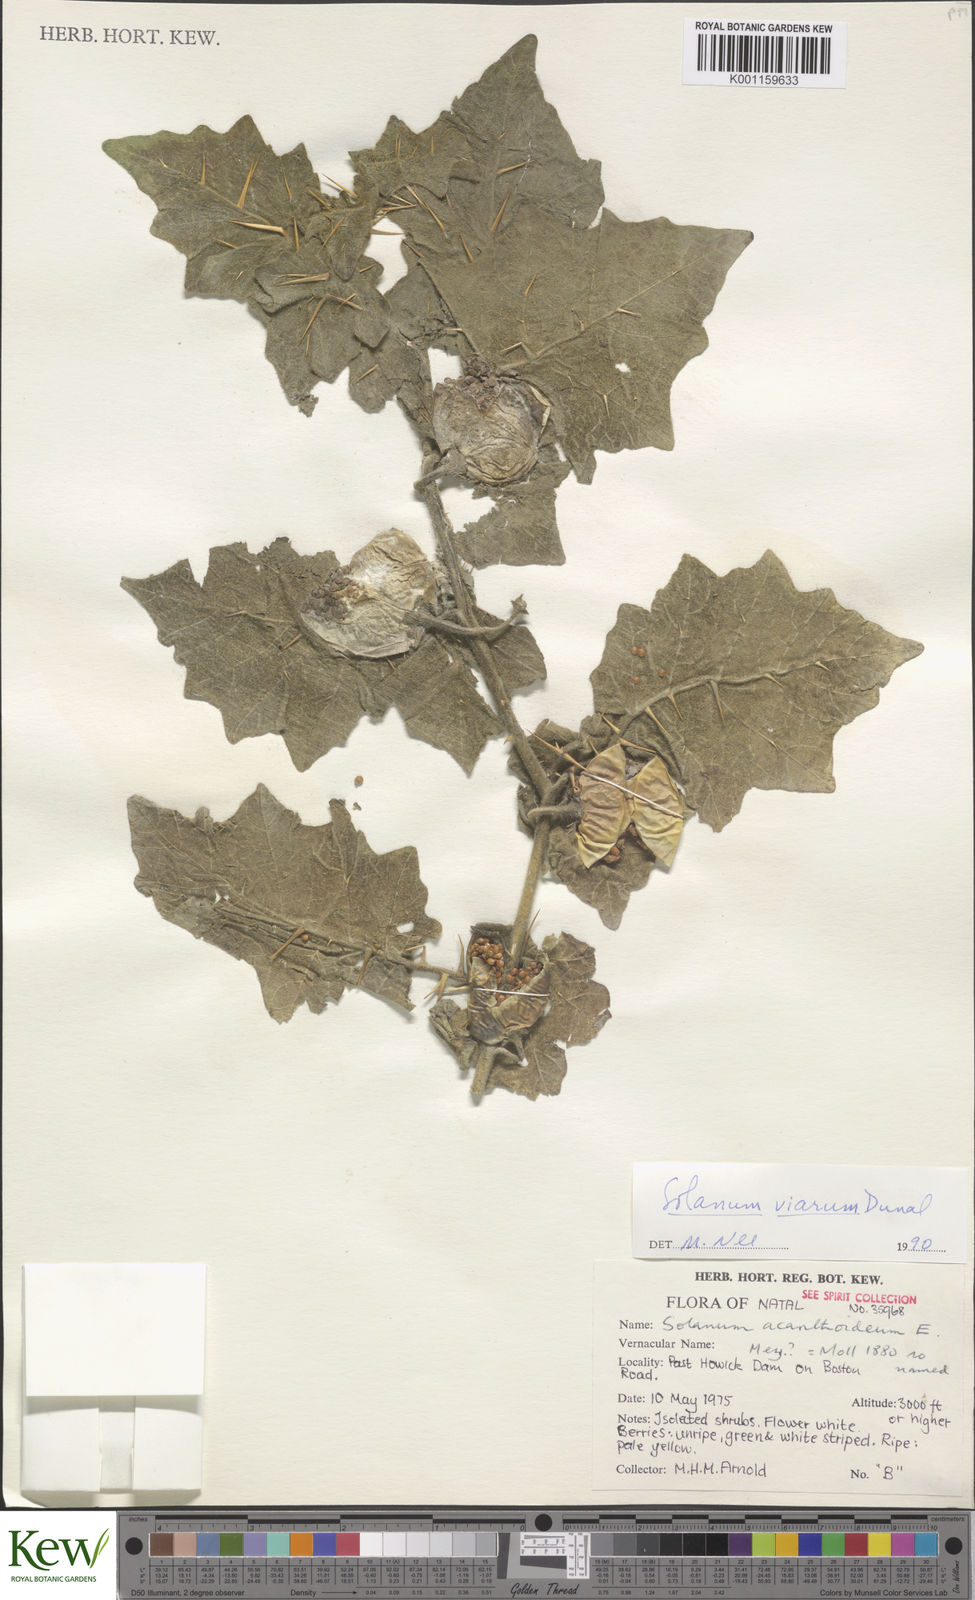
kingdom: Plantae
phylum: Tracheophyta
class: Magnoliopsida
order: Solanales
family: Solanaceae
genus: Solanum
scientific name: Solanum viarum
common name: Tropical soda apple
